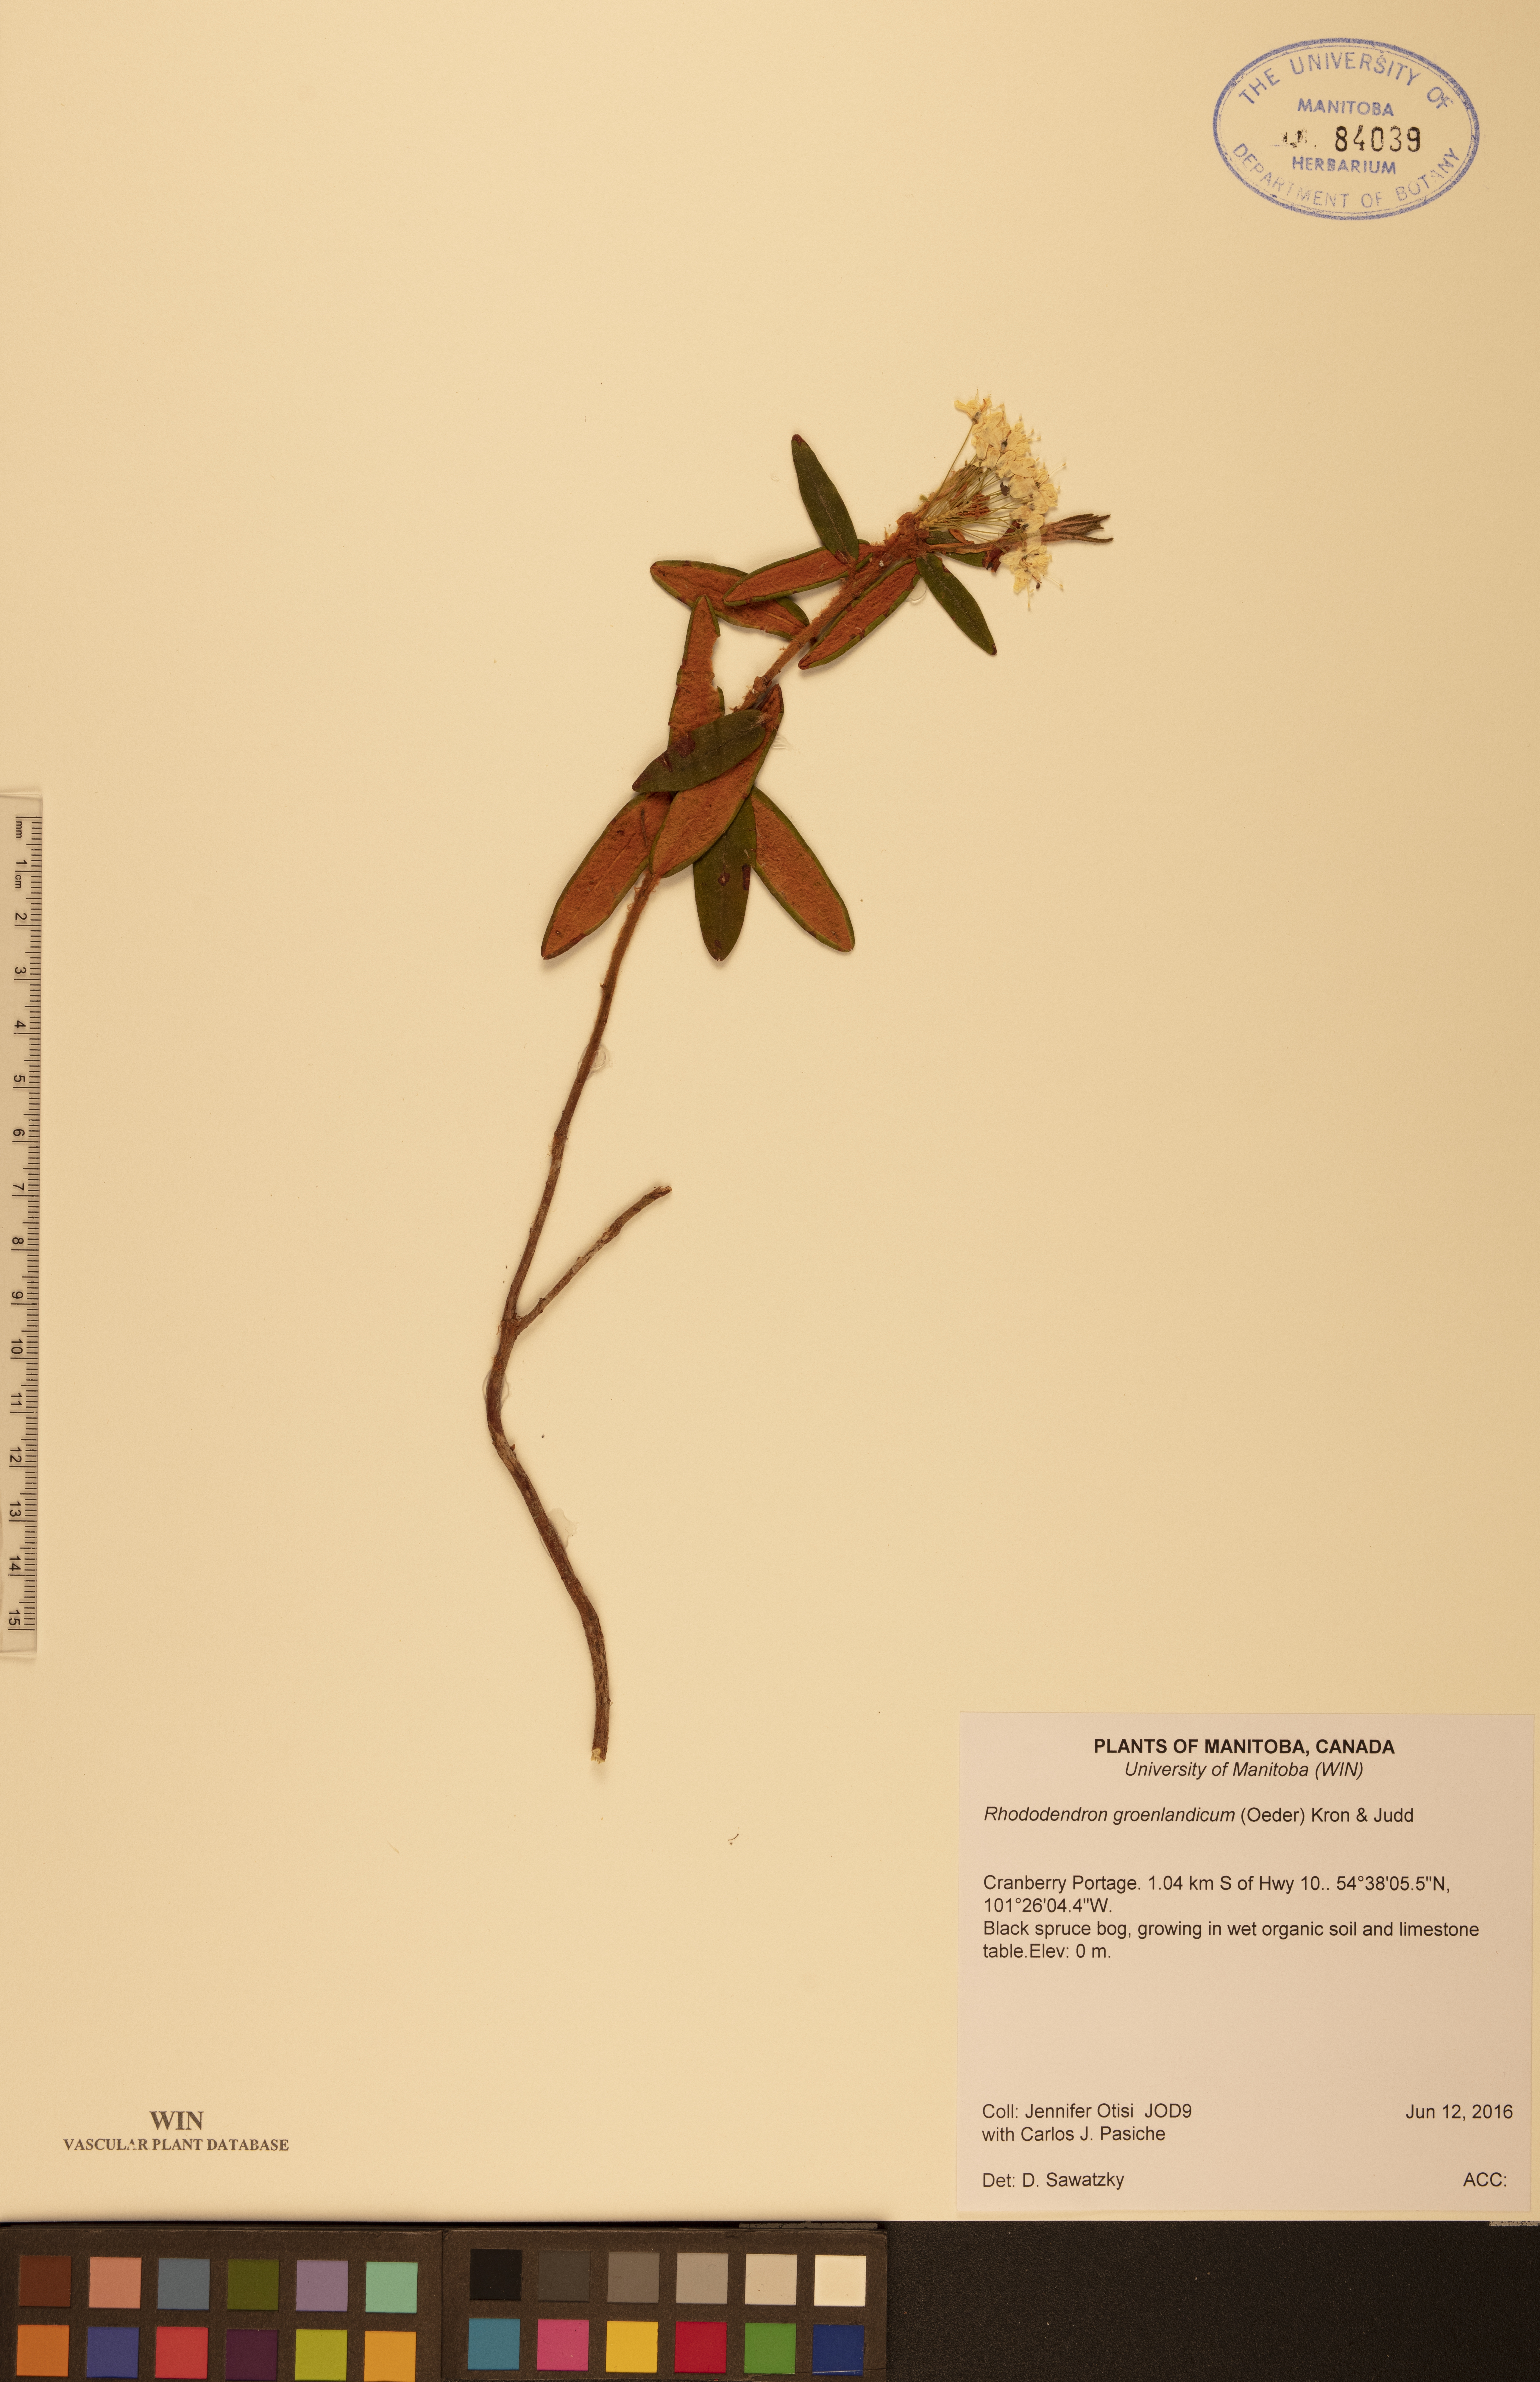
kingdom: Plantae
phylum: Tracheophyta
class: Magnoliopsida
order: Ericales
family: Ericaceae
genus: Rhododendron
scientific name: Rhododendron groenlandicum
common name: Bog labrador tea
